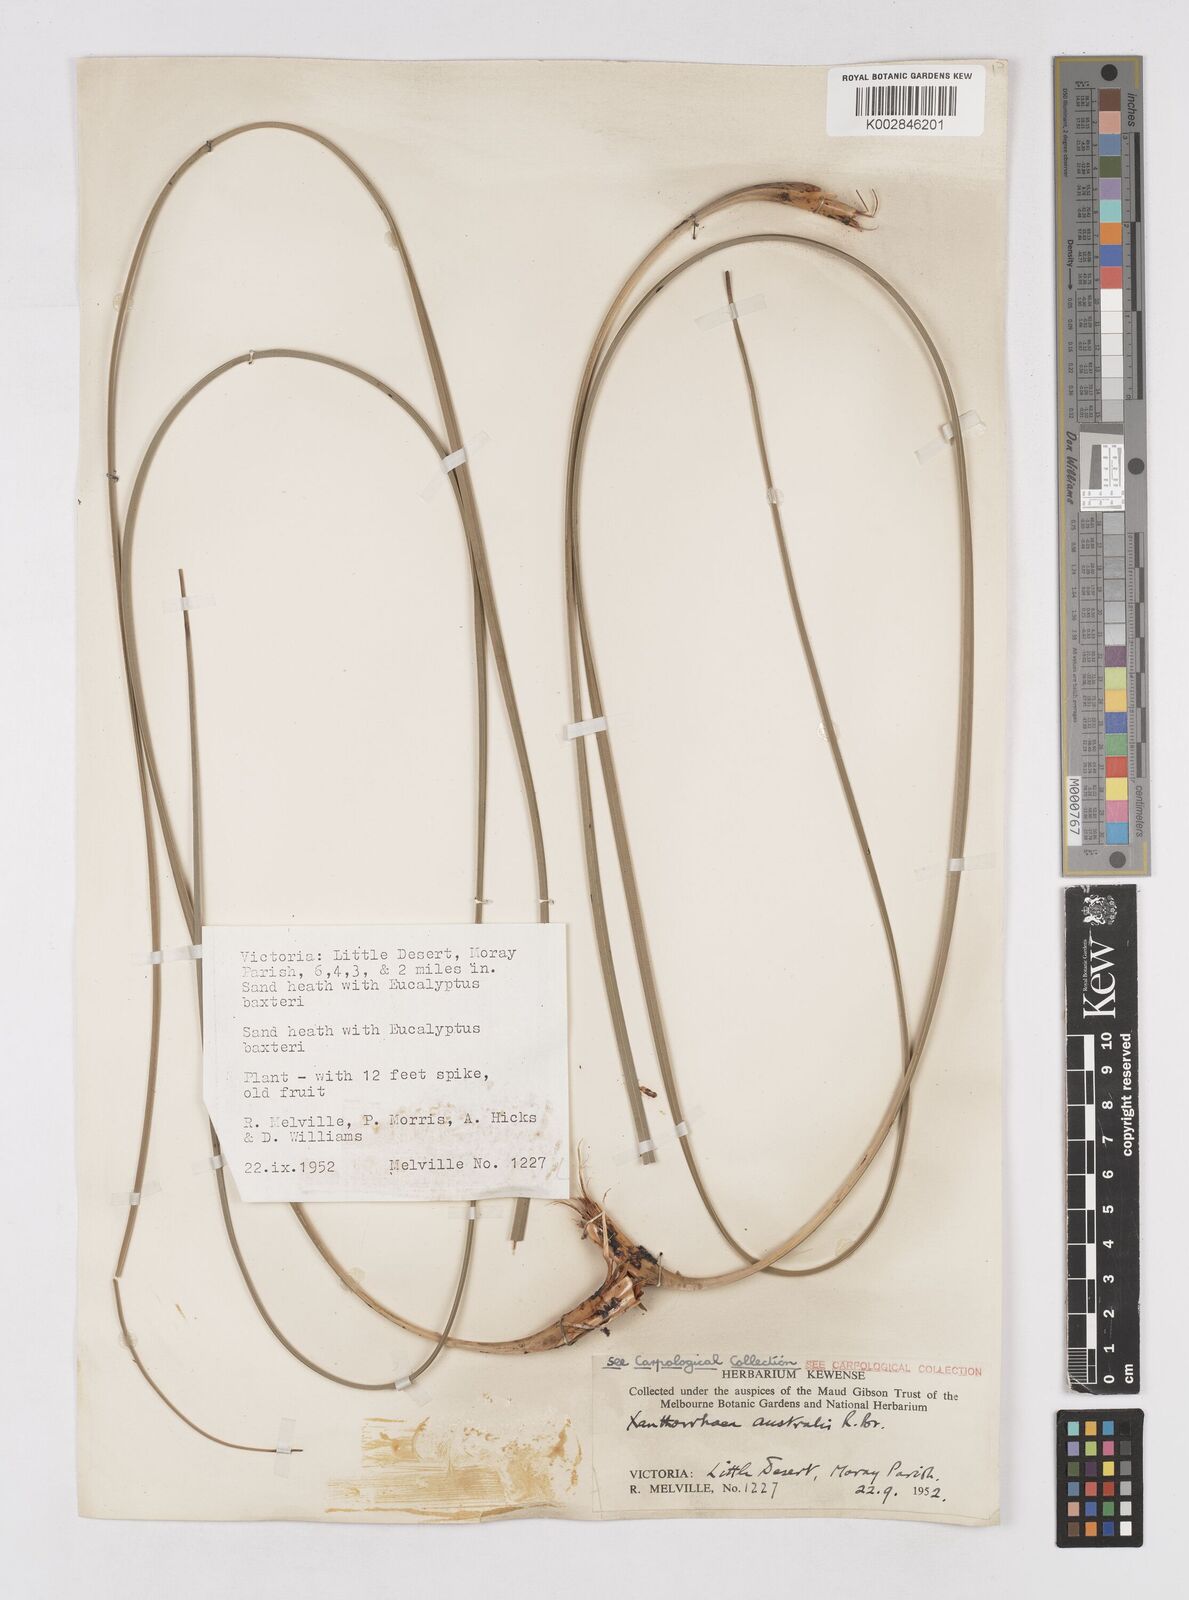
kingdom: Plantae
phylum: Tracheophyta
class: Liliopsida
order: Asparagales
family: Asphodelaceae
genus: Xanthorrhoea
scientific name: Xanthorrhoea australis
